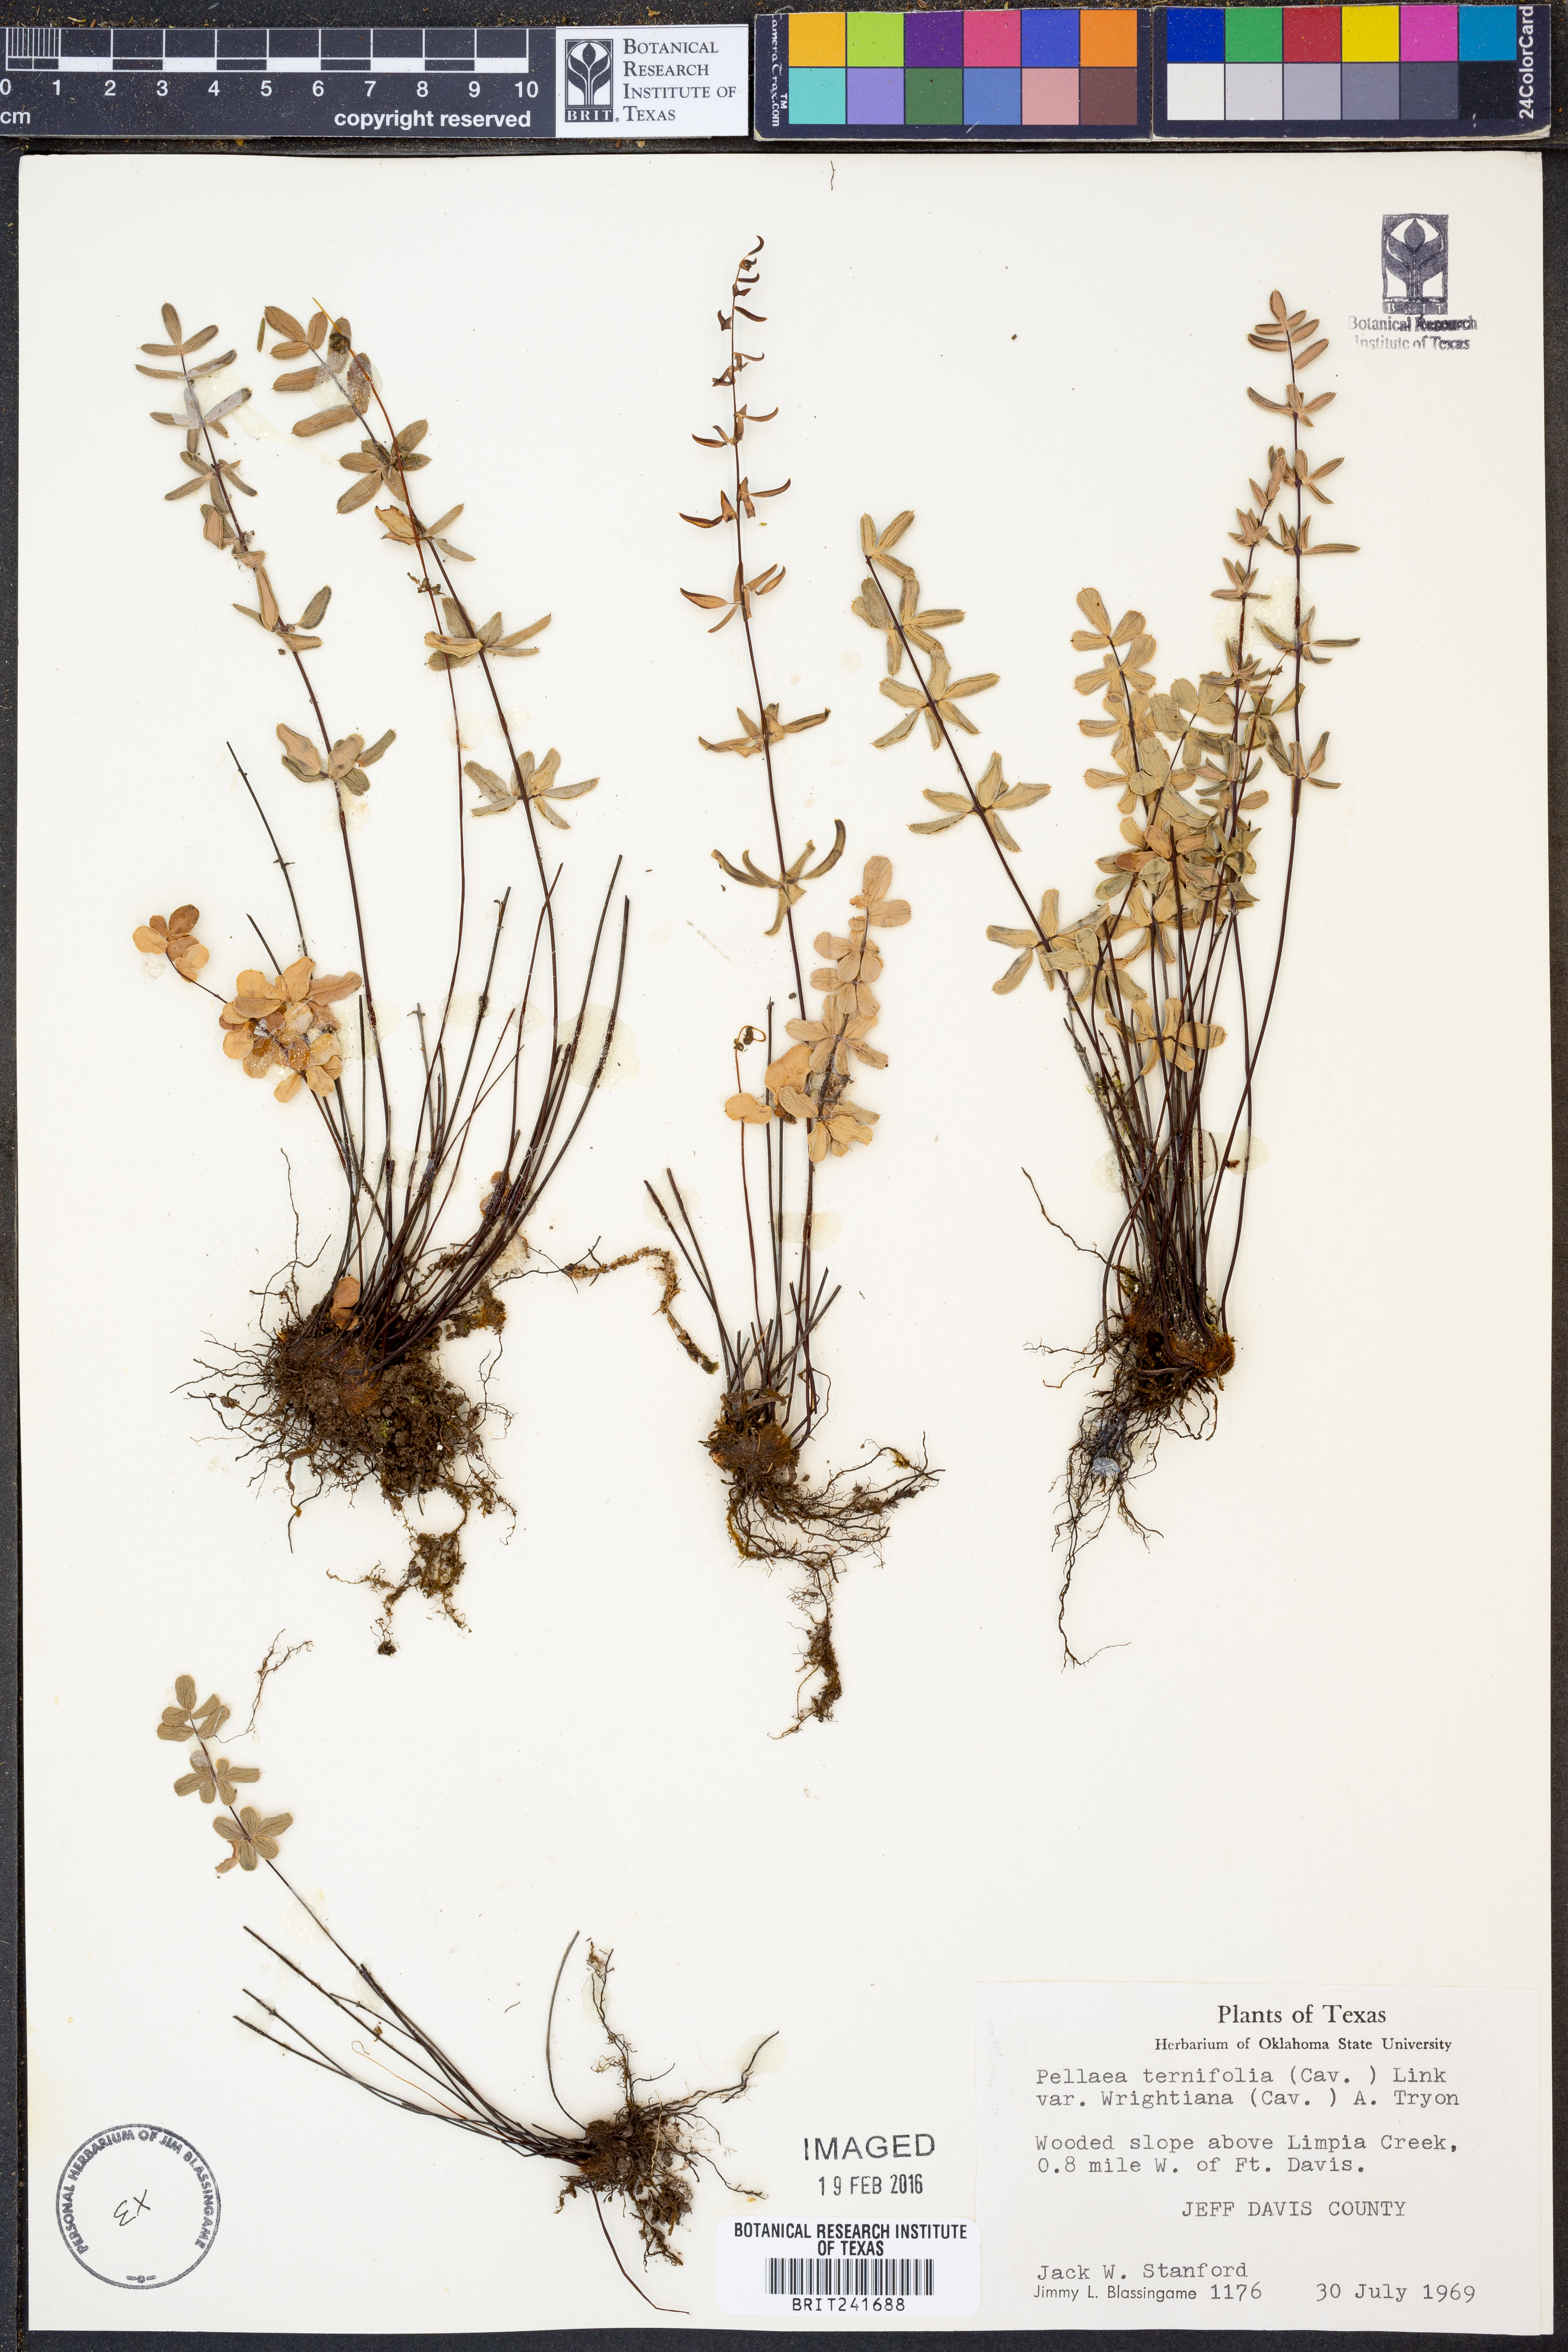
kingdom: Plantae
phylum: Tracheophyta
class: Polypodiopsida
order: Polypodiales
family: Pteridaceae
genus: Pellaea
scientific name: Pellaea wrightiana
